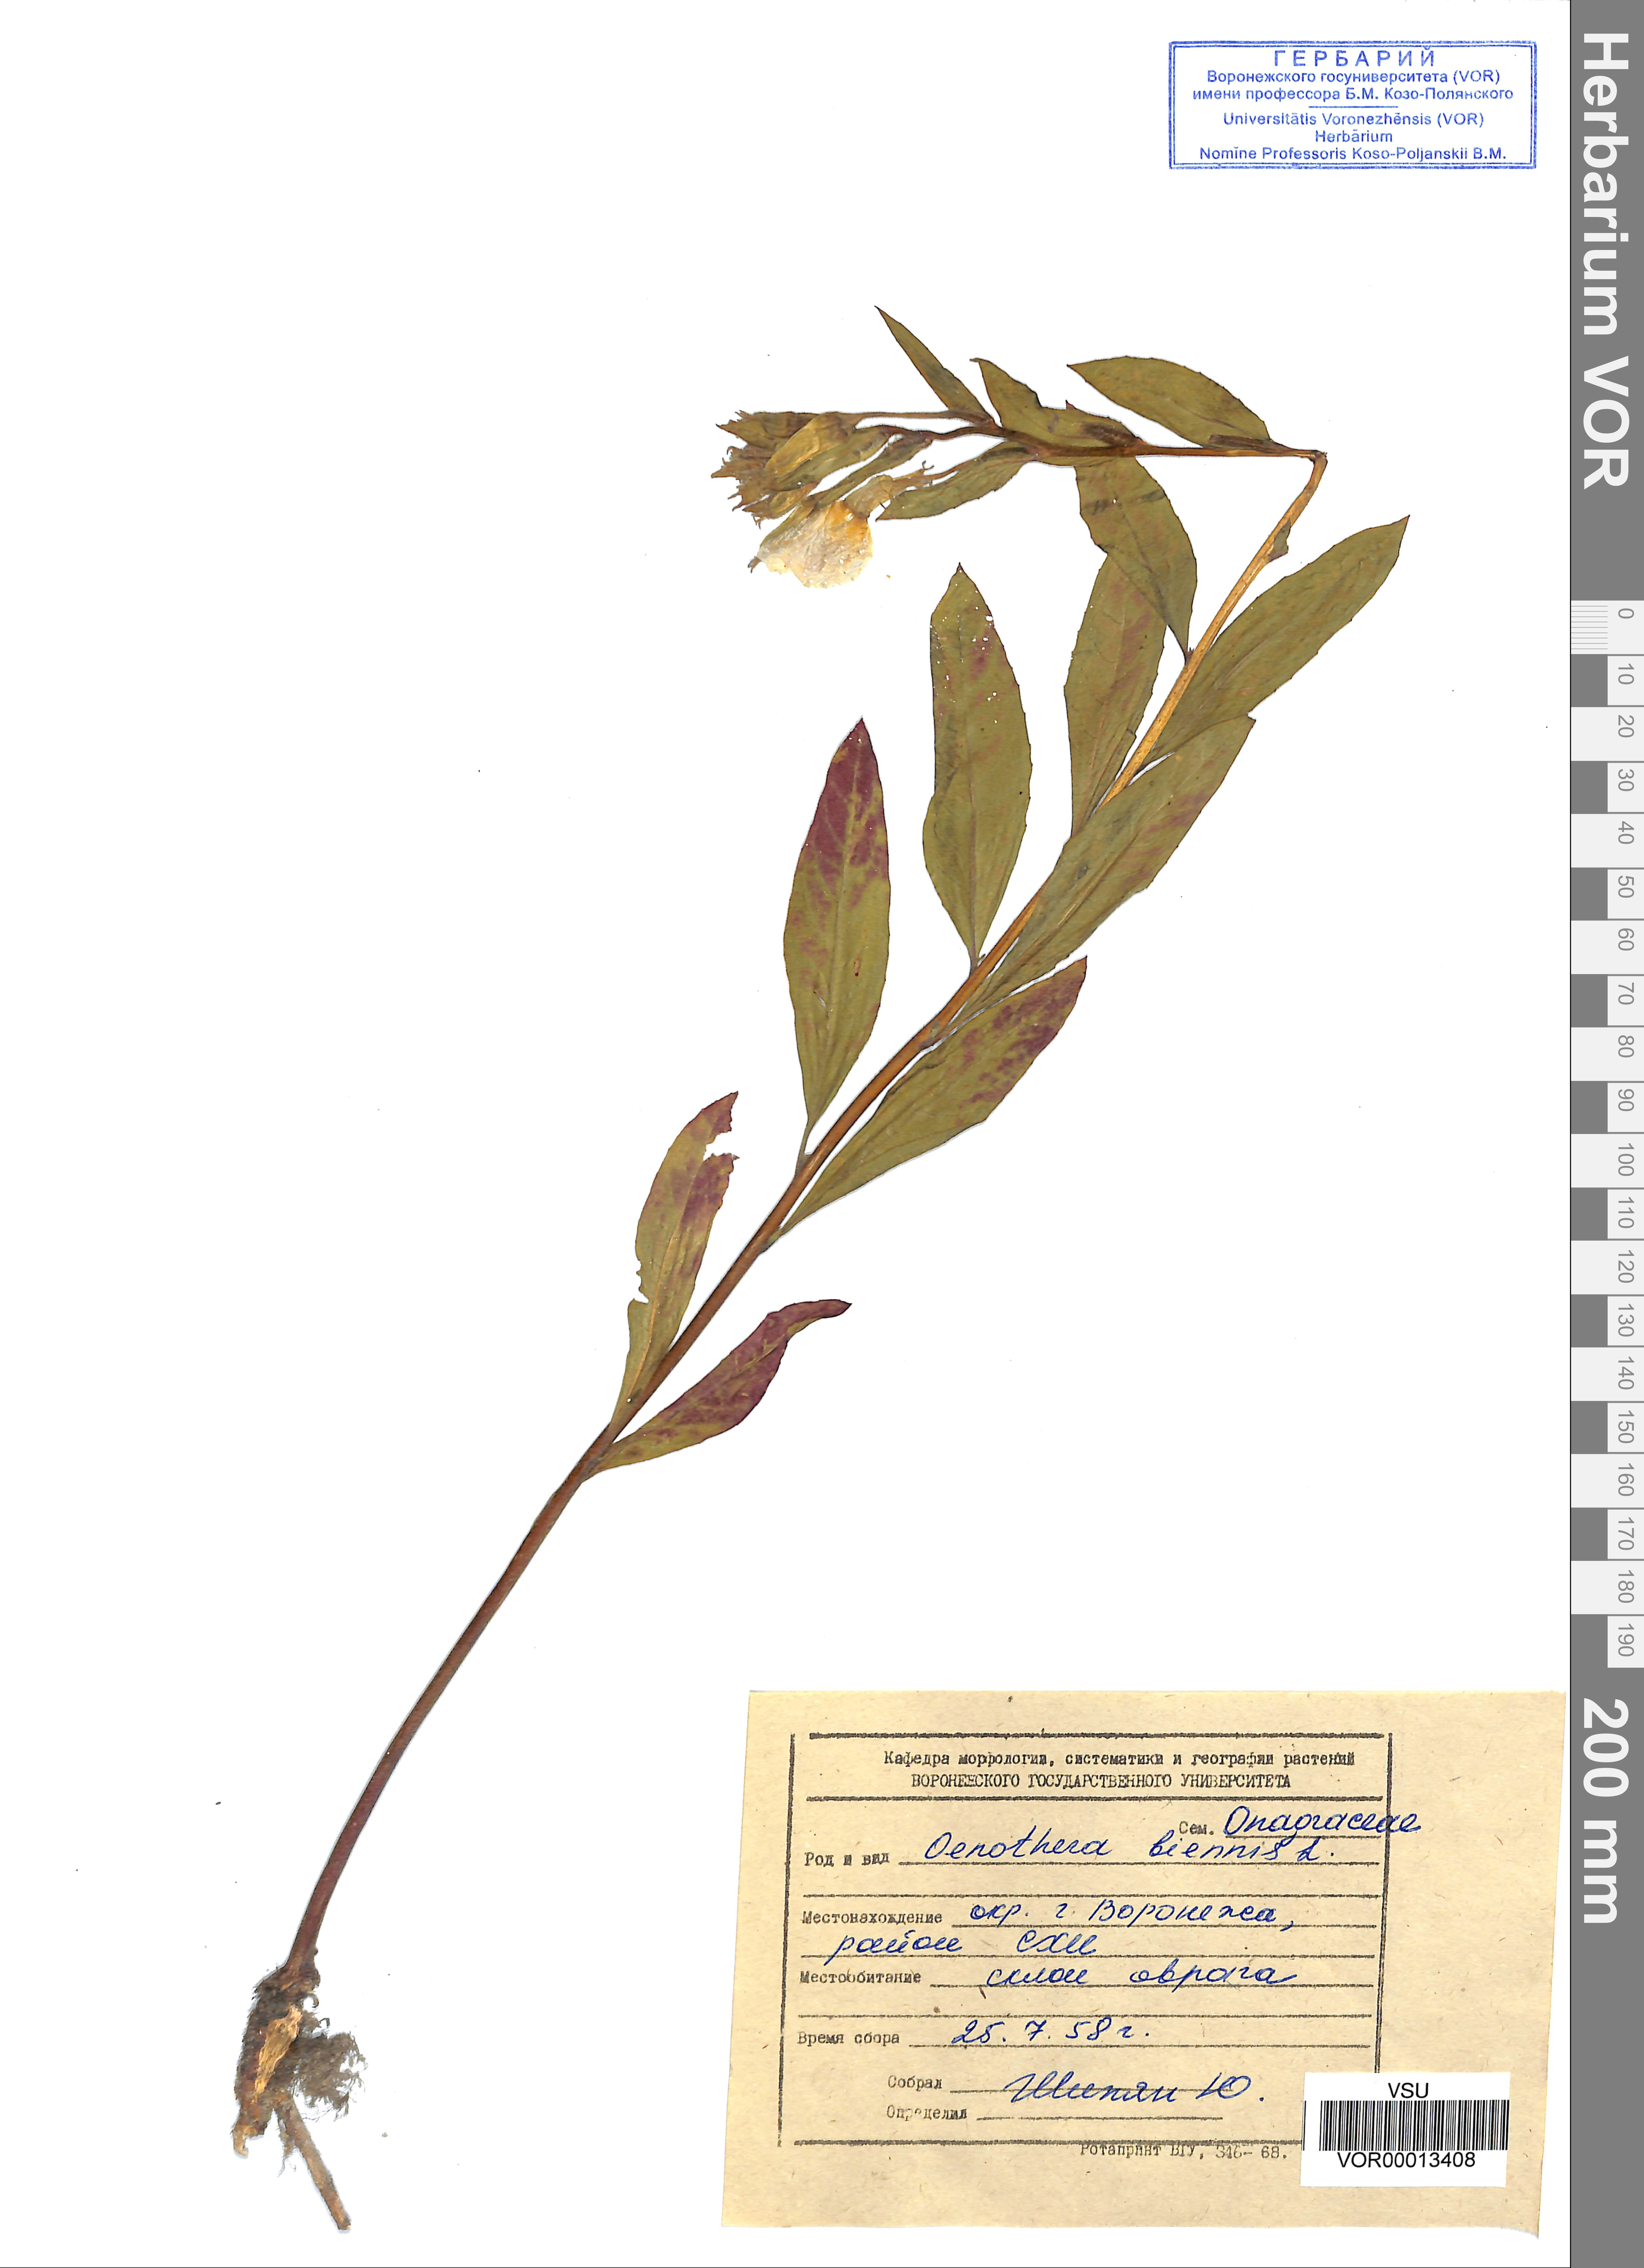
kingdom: Plantae
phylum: Tracheophyta
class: Magnoliopsida
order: Myrtales
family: Onagraceae
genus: Oenothera
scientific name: Oenothera biennis
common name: Common evening-primrose
